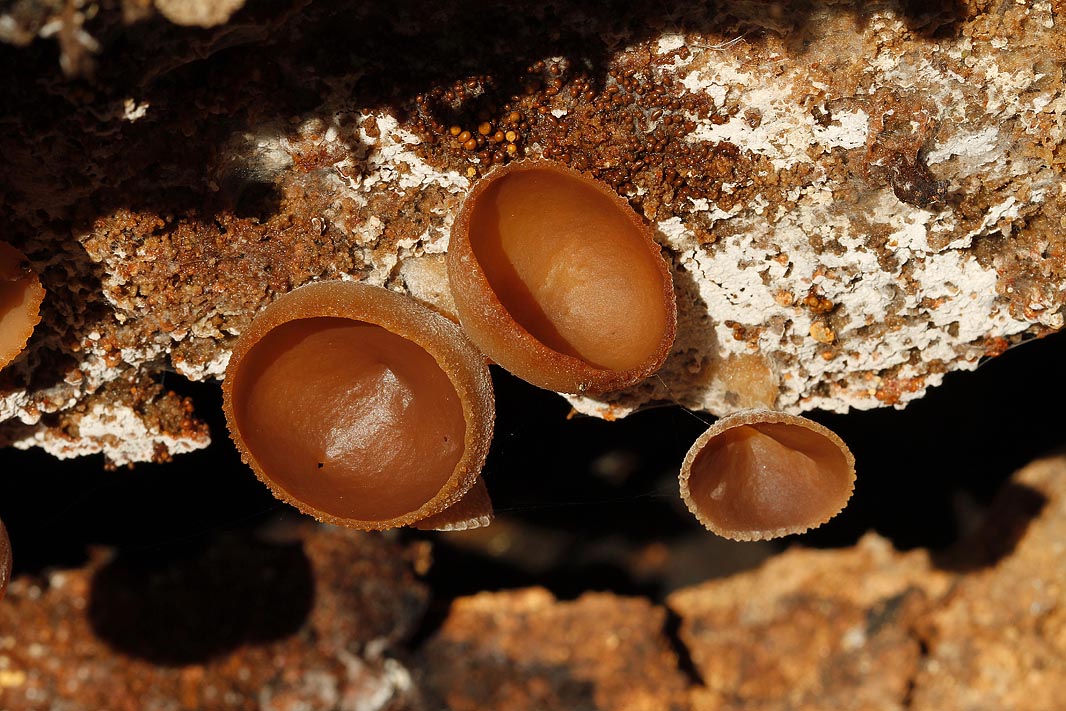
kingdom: Fungi
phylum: Ascomycota
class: Pezizomycetes
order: Pezizales
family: Pezizaceae
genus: Peziza
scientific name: Peziza varia
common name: Ved-bægersvamp
